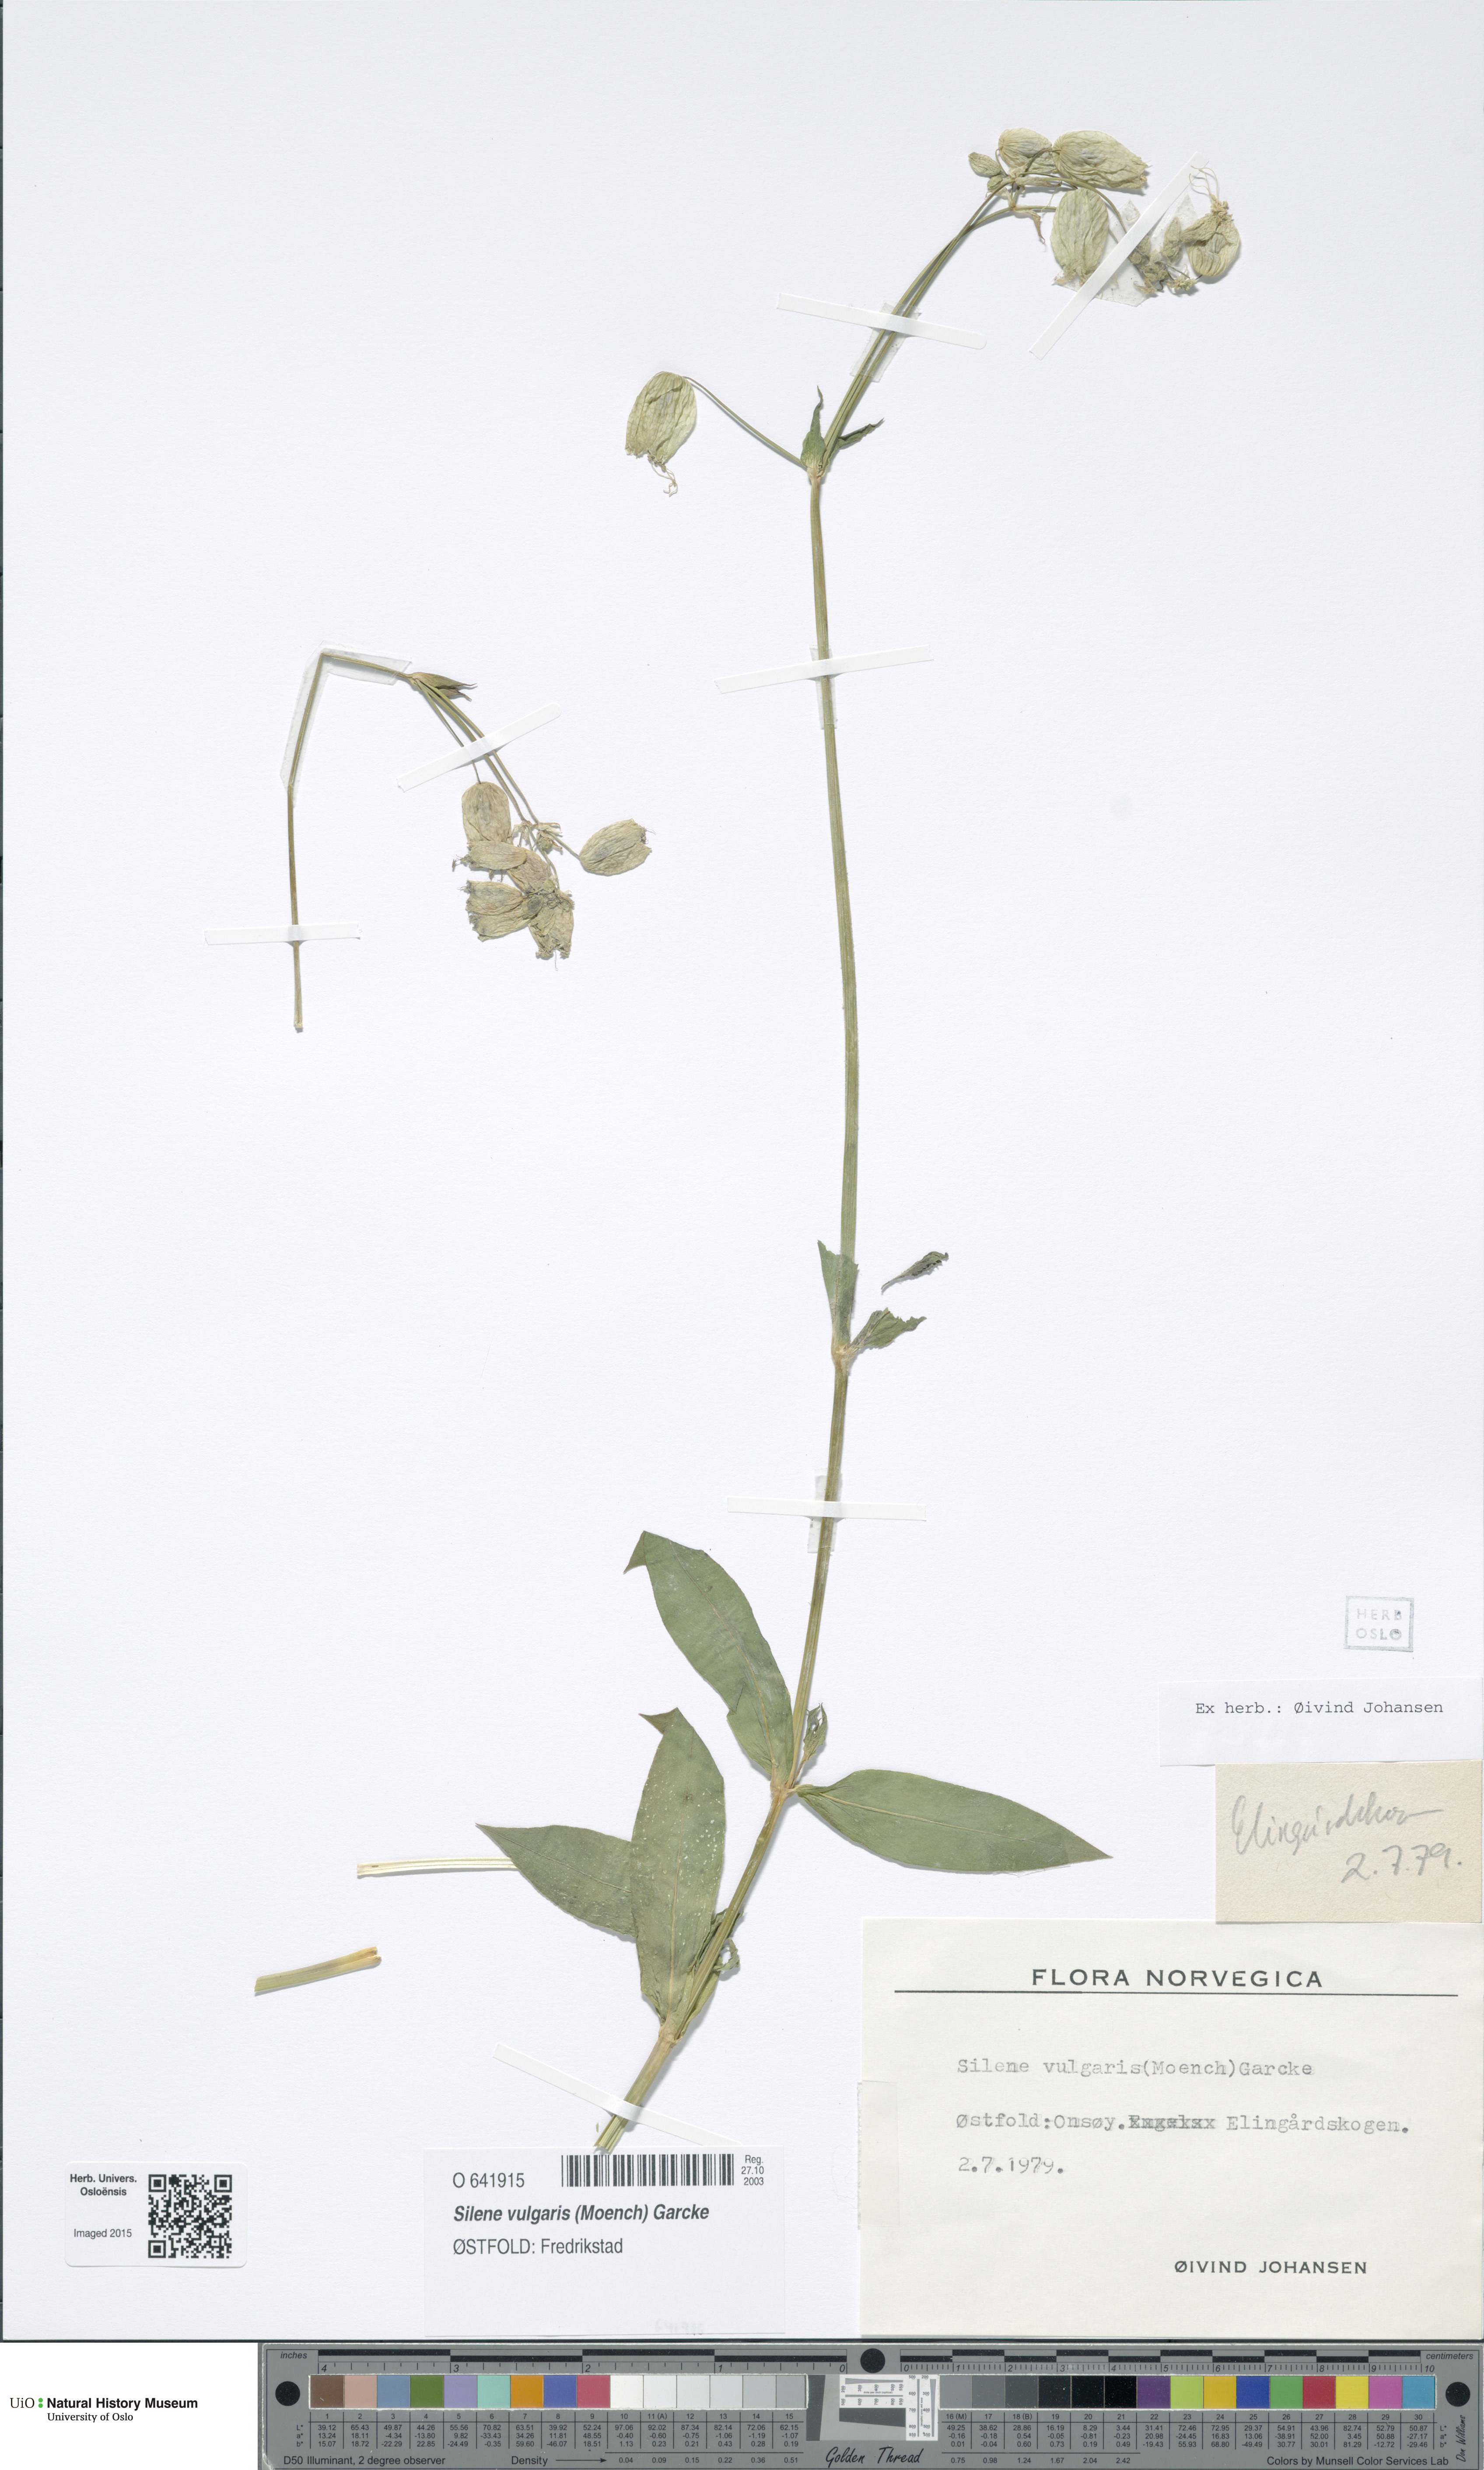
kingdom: Plantae
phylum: Tracheophyta
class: Magnoliopsida
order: Caryophyllales
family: Caryophyllaceae
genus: Silene
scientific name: Silene vulgaris
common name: Bladder campion
